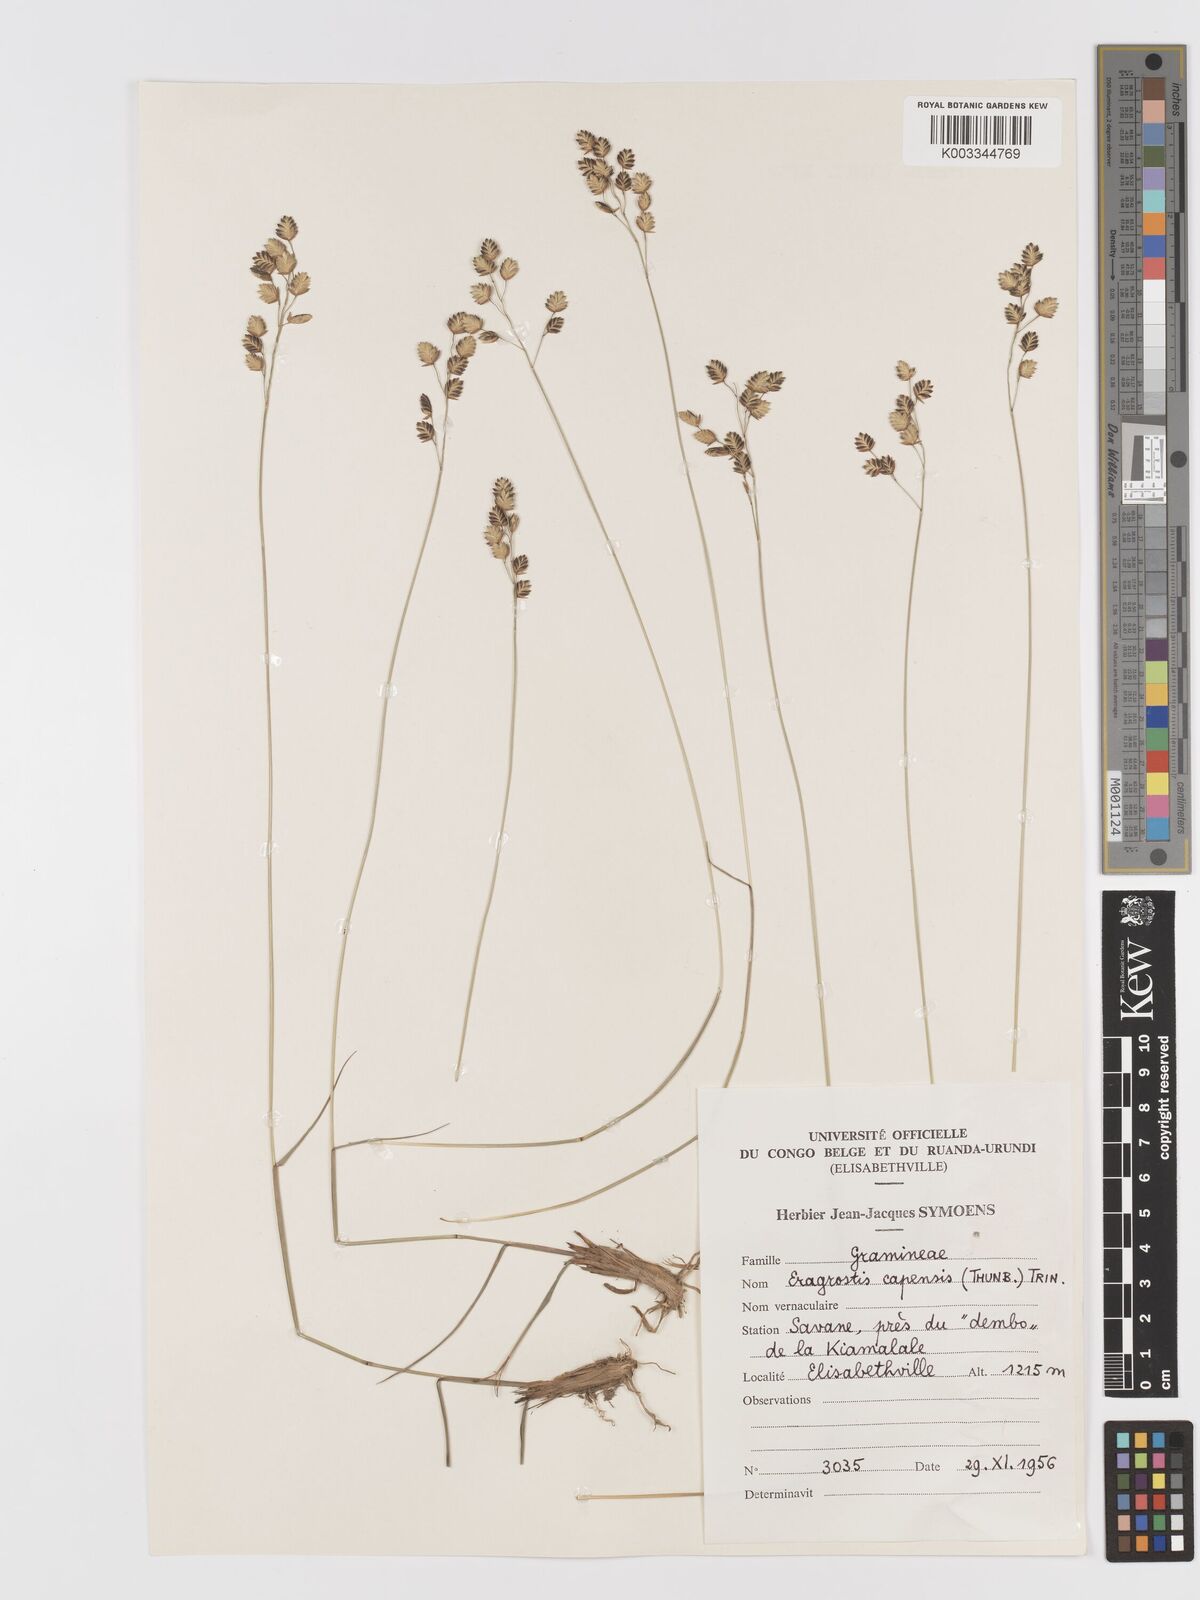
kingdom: Plantae
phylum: Tracheophyta
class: Liliopsida
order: Poales
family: Poaceae
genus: Eragrostis
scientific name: Eragrostis capensis
